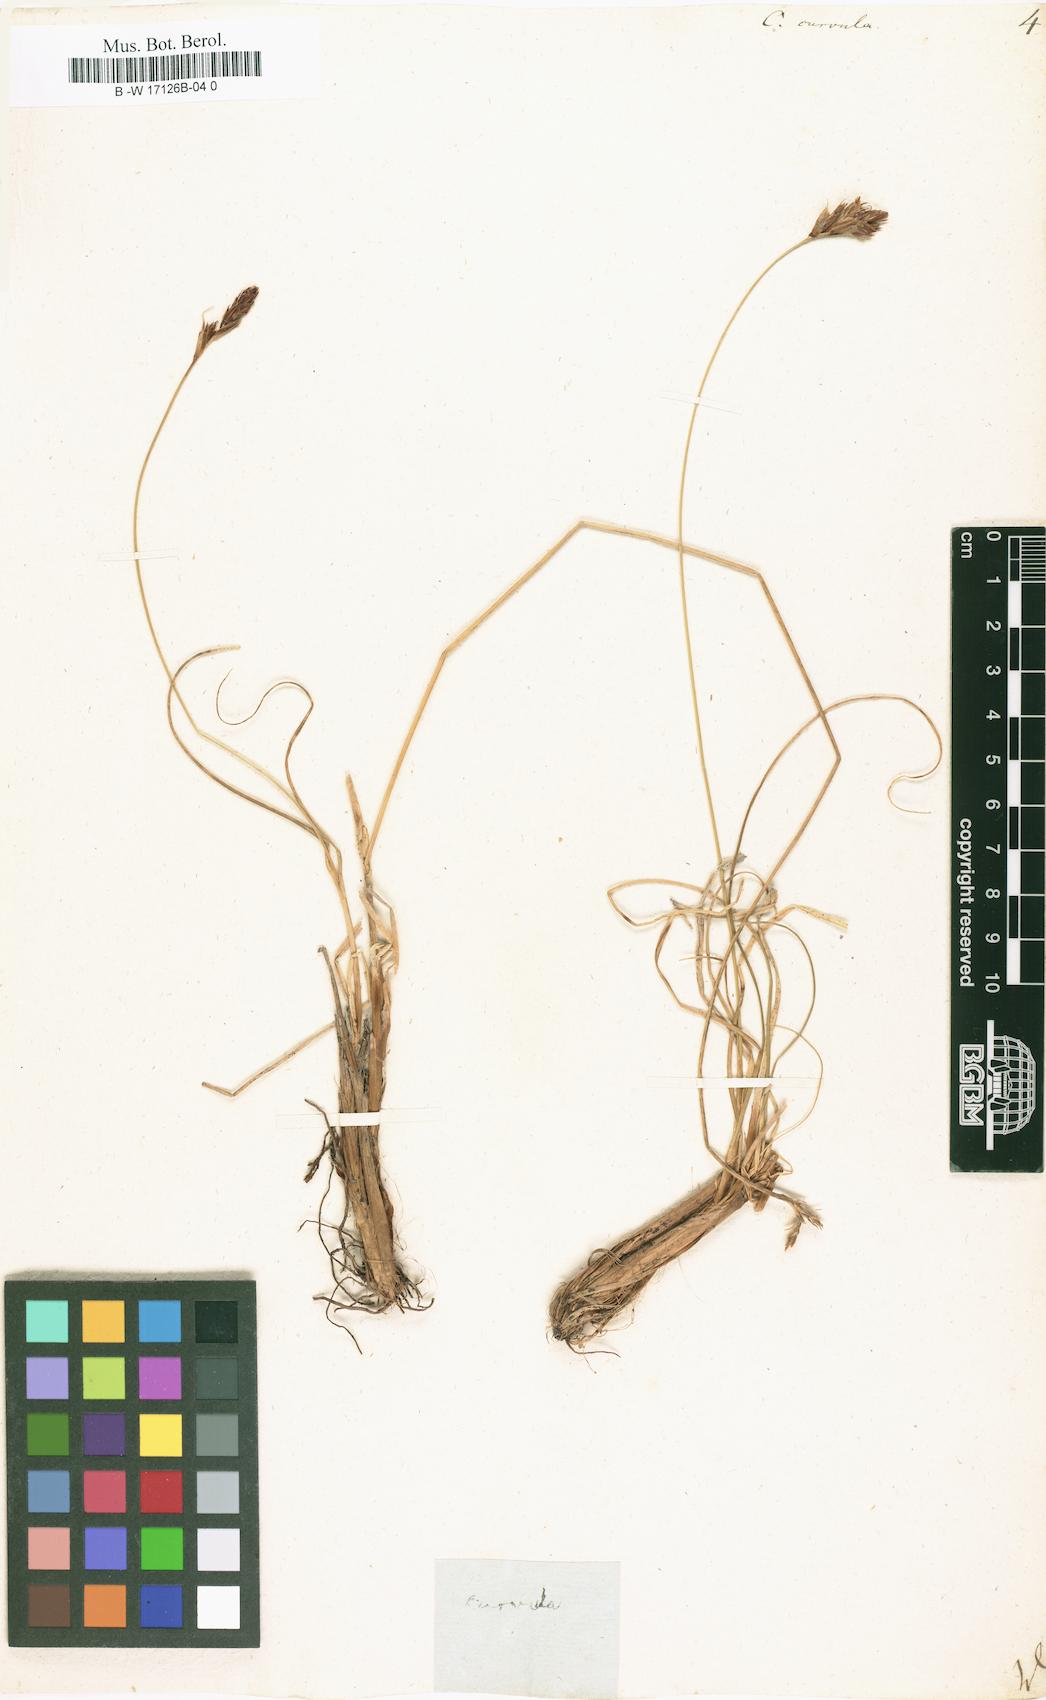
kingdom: Plantae
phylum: Tracheophyta
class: Liliopsida
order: Poales
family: Cyperaceae
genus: Carex
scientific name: Carex curvula
